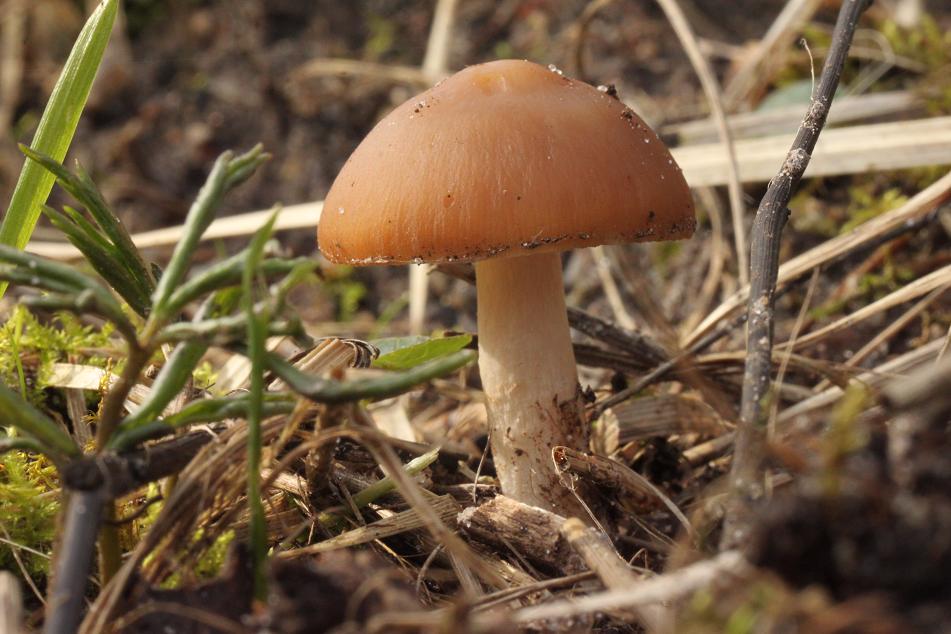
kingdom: Fungi
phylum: Basidiomycota
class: Agaricomycetes
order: Agaricales
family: Psathyrellaceae
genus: Psathyrella
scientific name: Psathyrella
